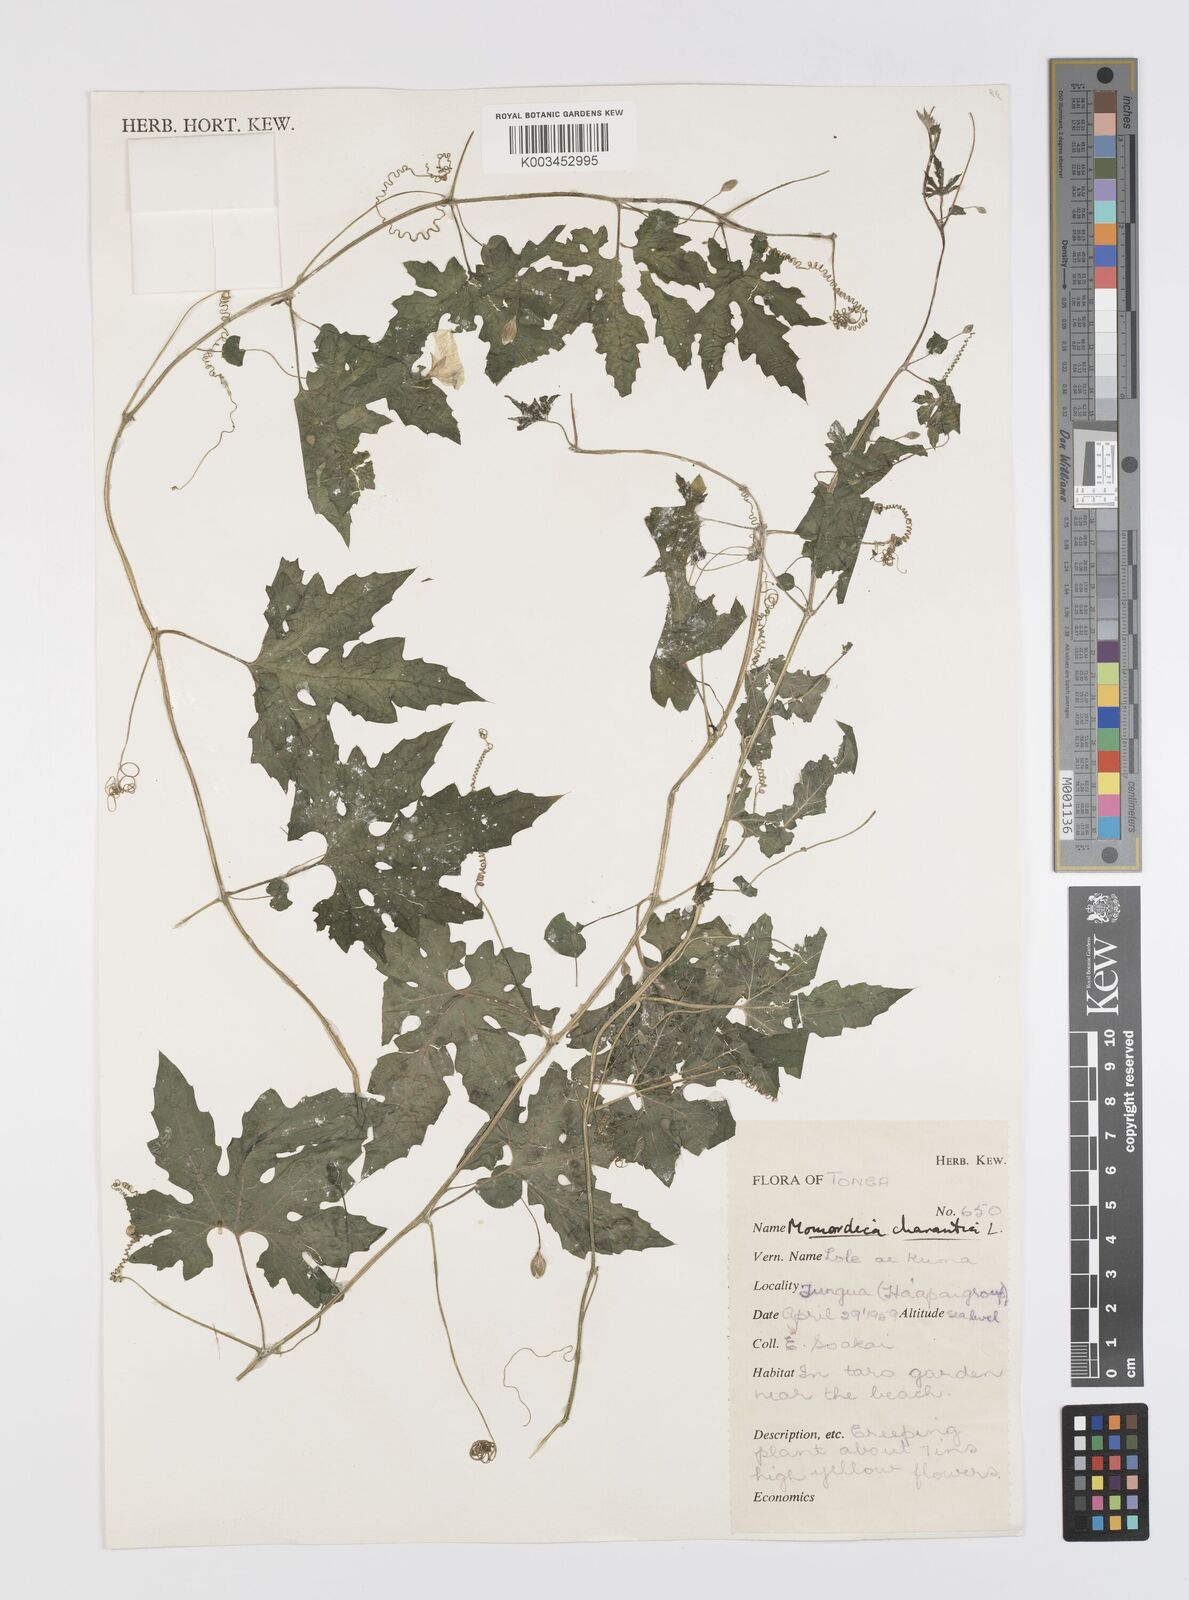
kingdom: Plantae
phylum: Tracheophyta
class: Magnoliopsida
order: Cucurbitales
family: Cucurbitaceae
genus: Momordica
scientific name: Momordica charantia
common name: Balsampear
